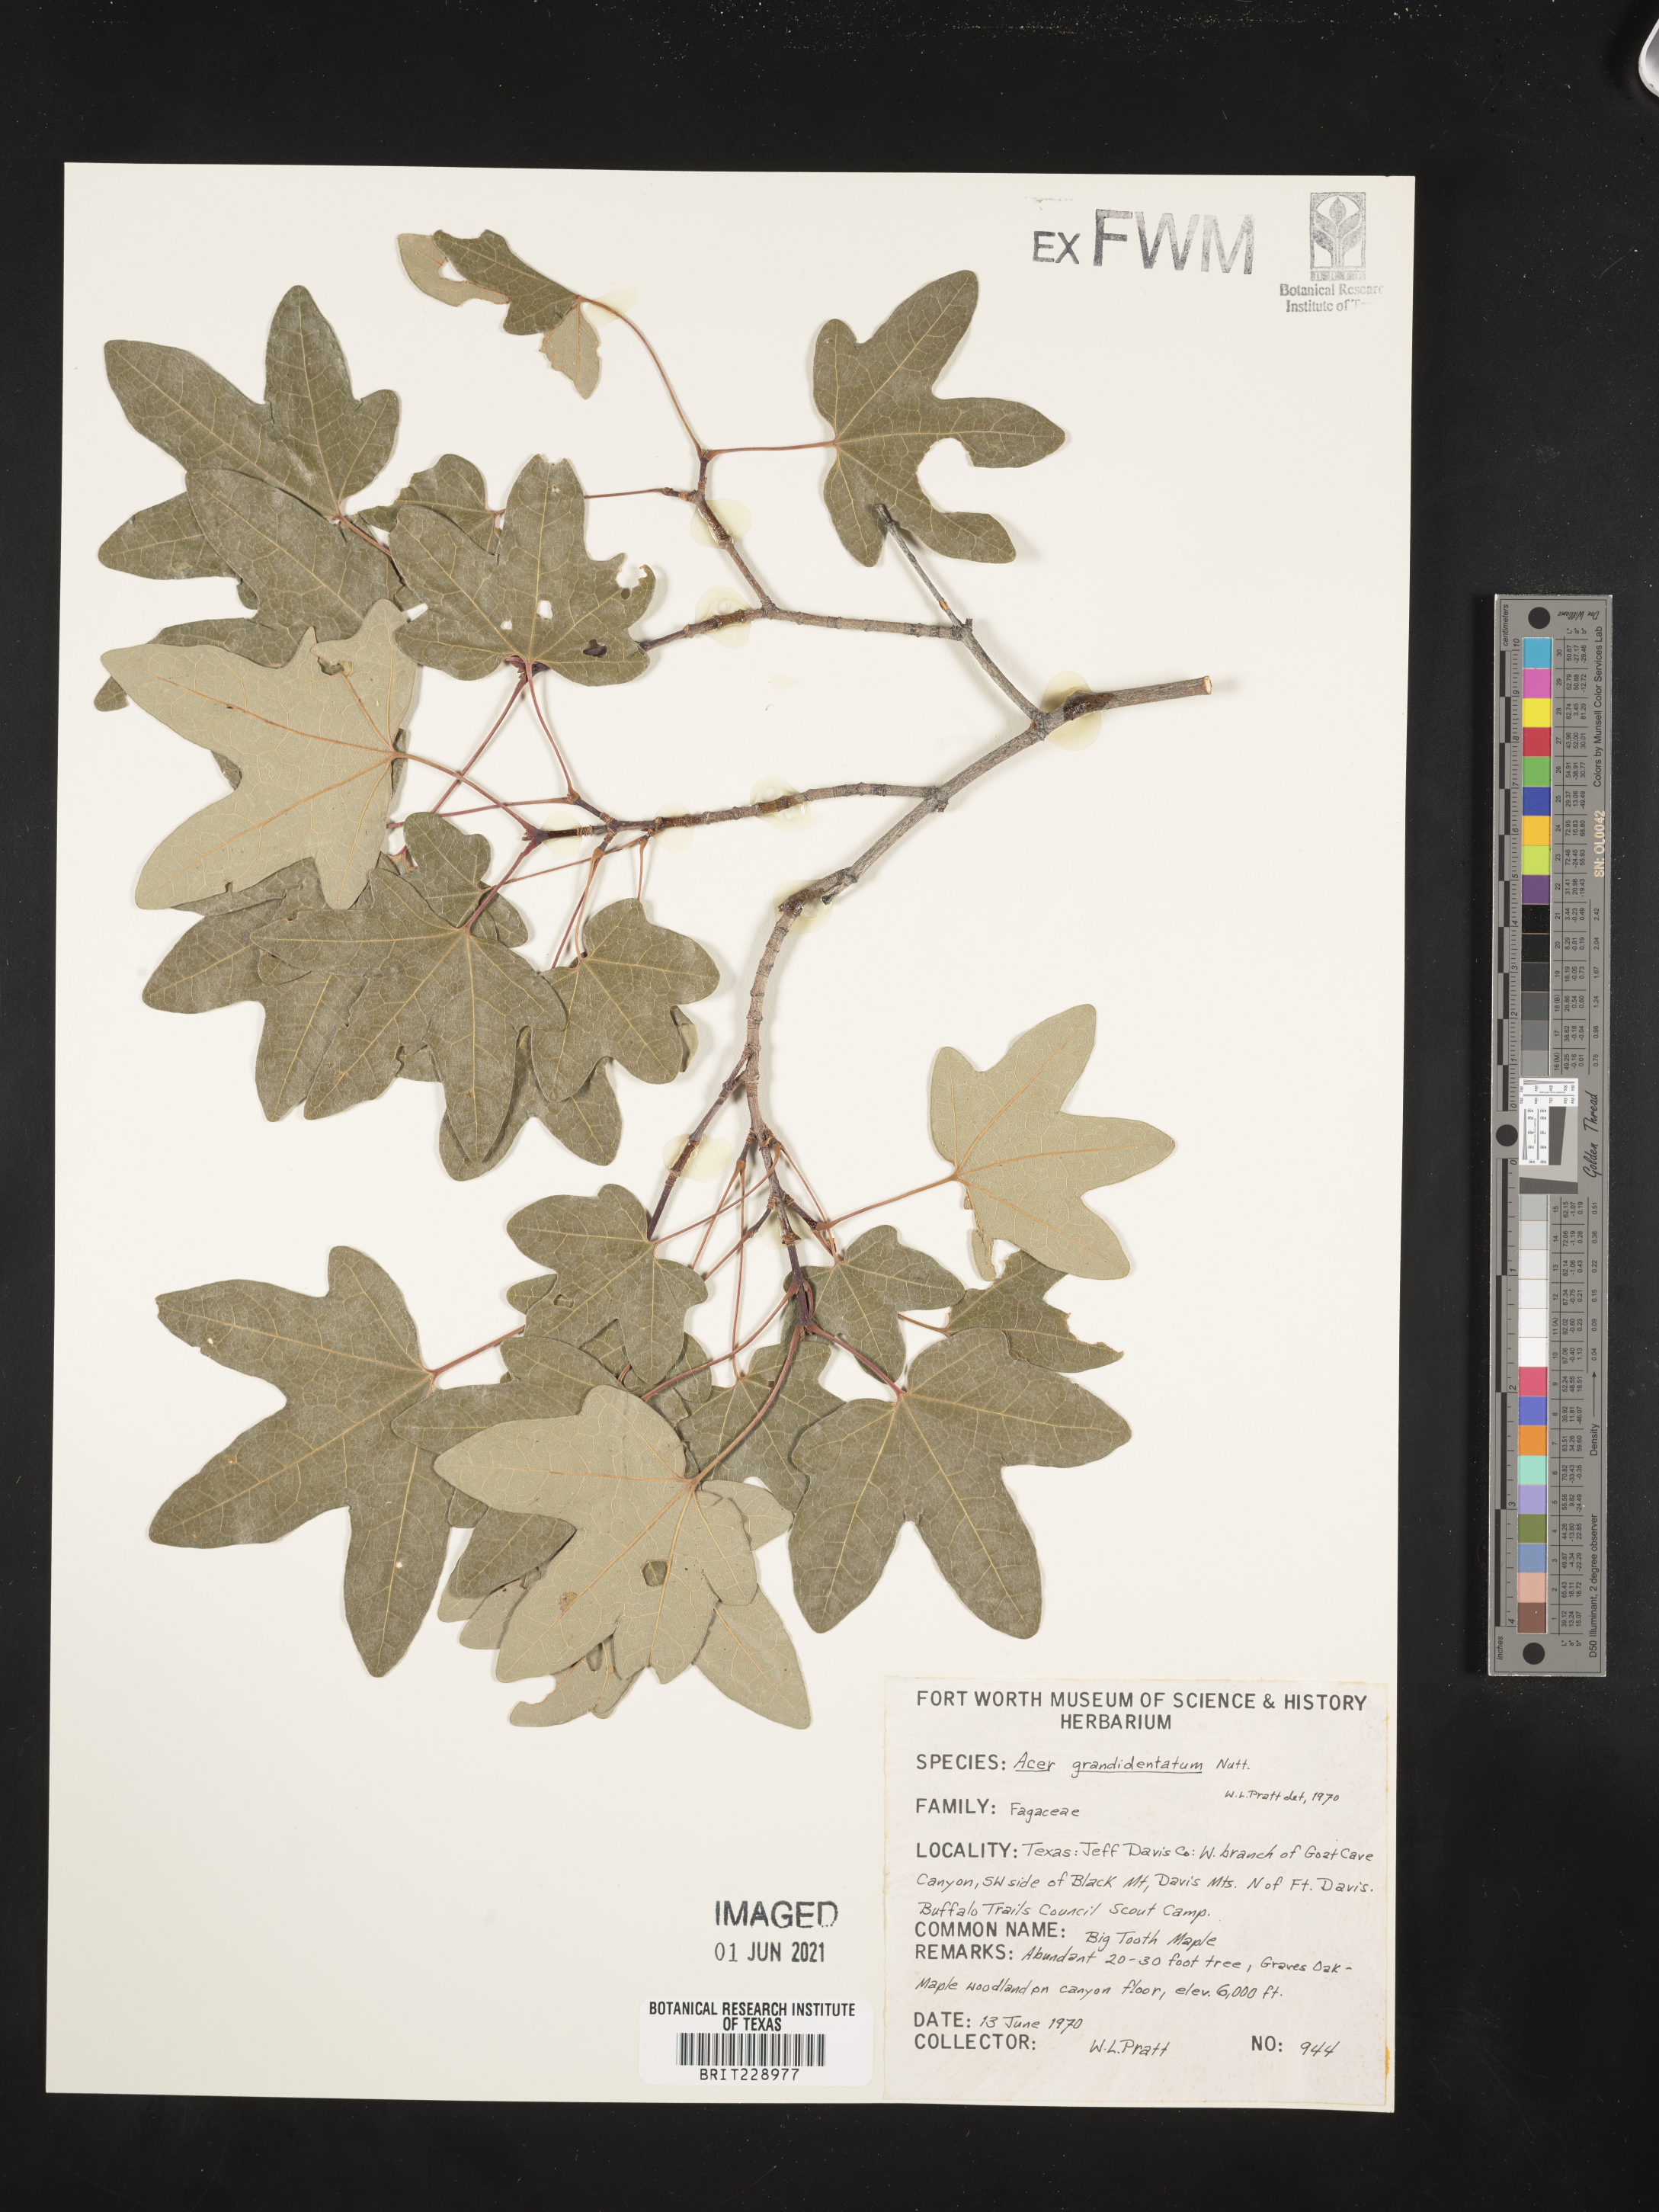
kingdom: Plantae
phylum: Tracheophyta
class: Magnoliopsida
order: Sapindales
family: Sapindaceae
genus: Acer
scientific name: Acer grandidentatum
